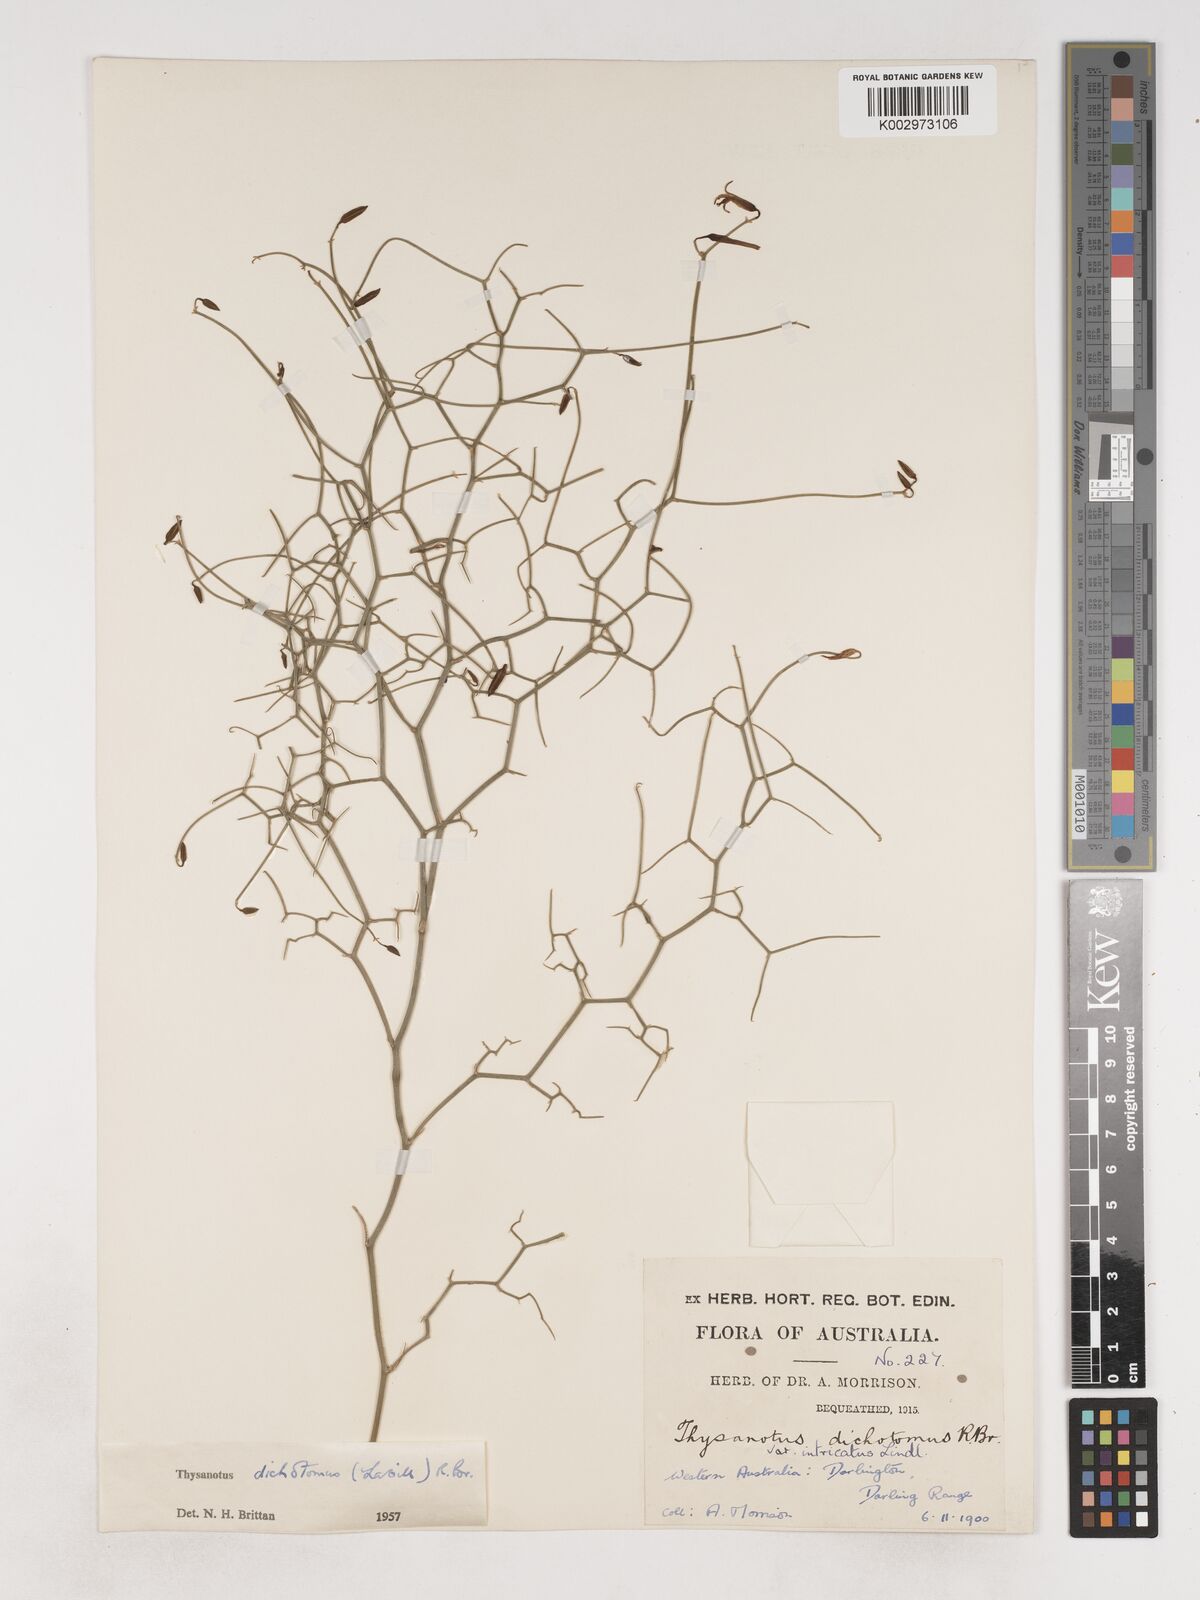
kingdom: Plantae
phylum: Tracheophyta
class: Liliopsida
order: Asparagales
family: Asparagaceae
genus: Thysanotus
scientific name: Thysanotus dichotomus
